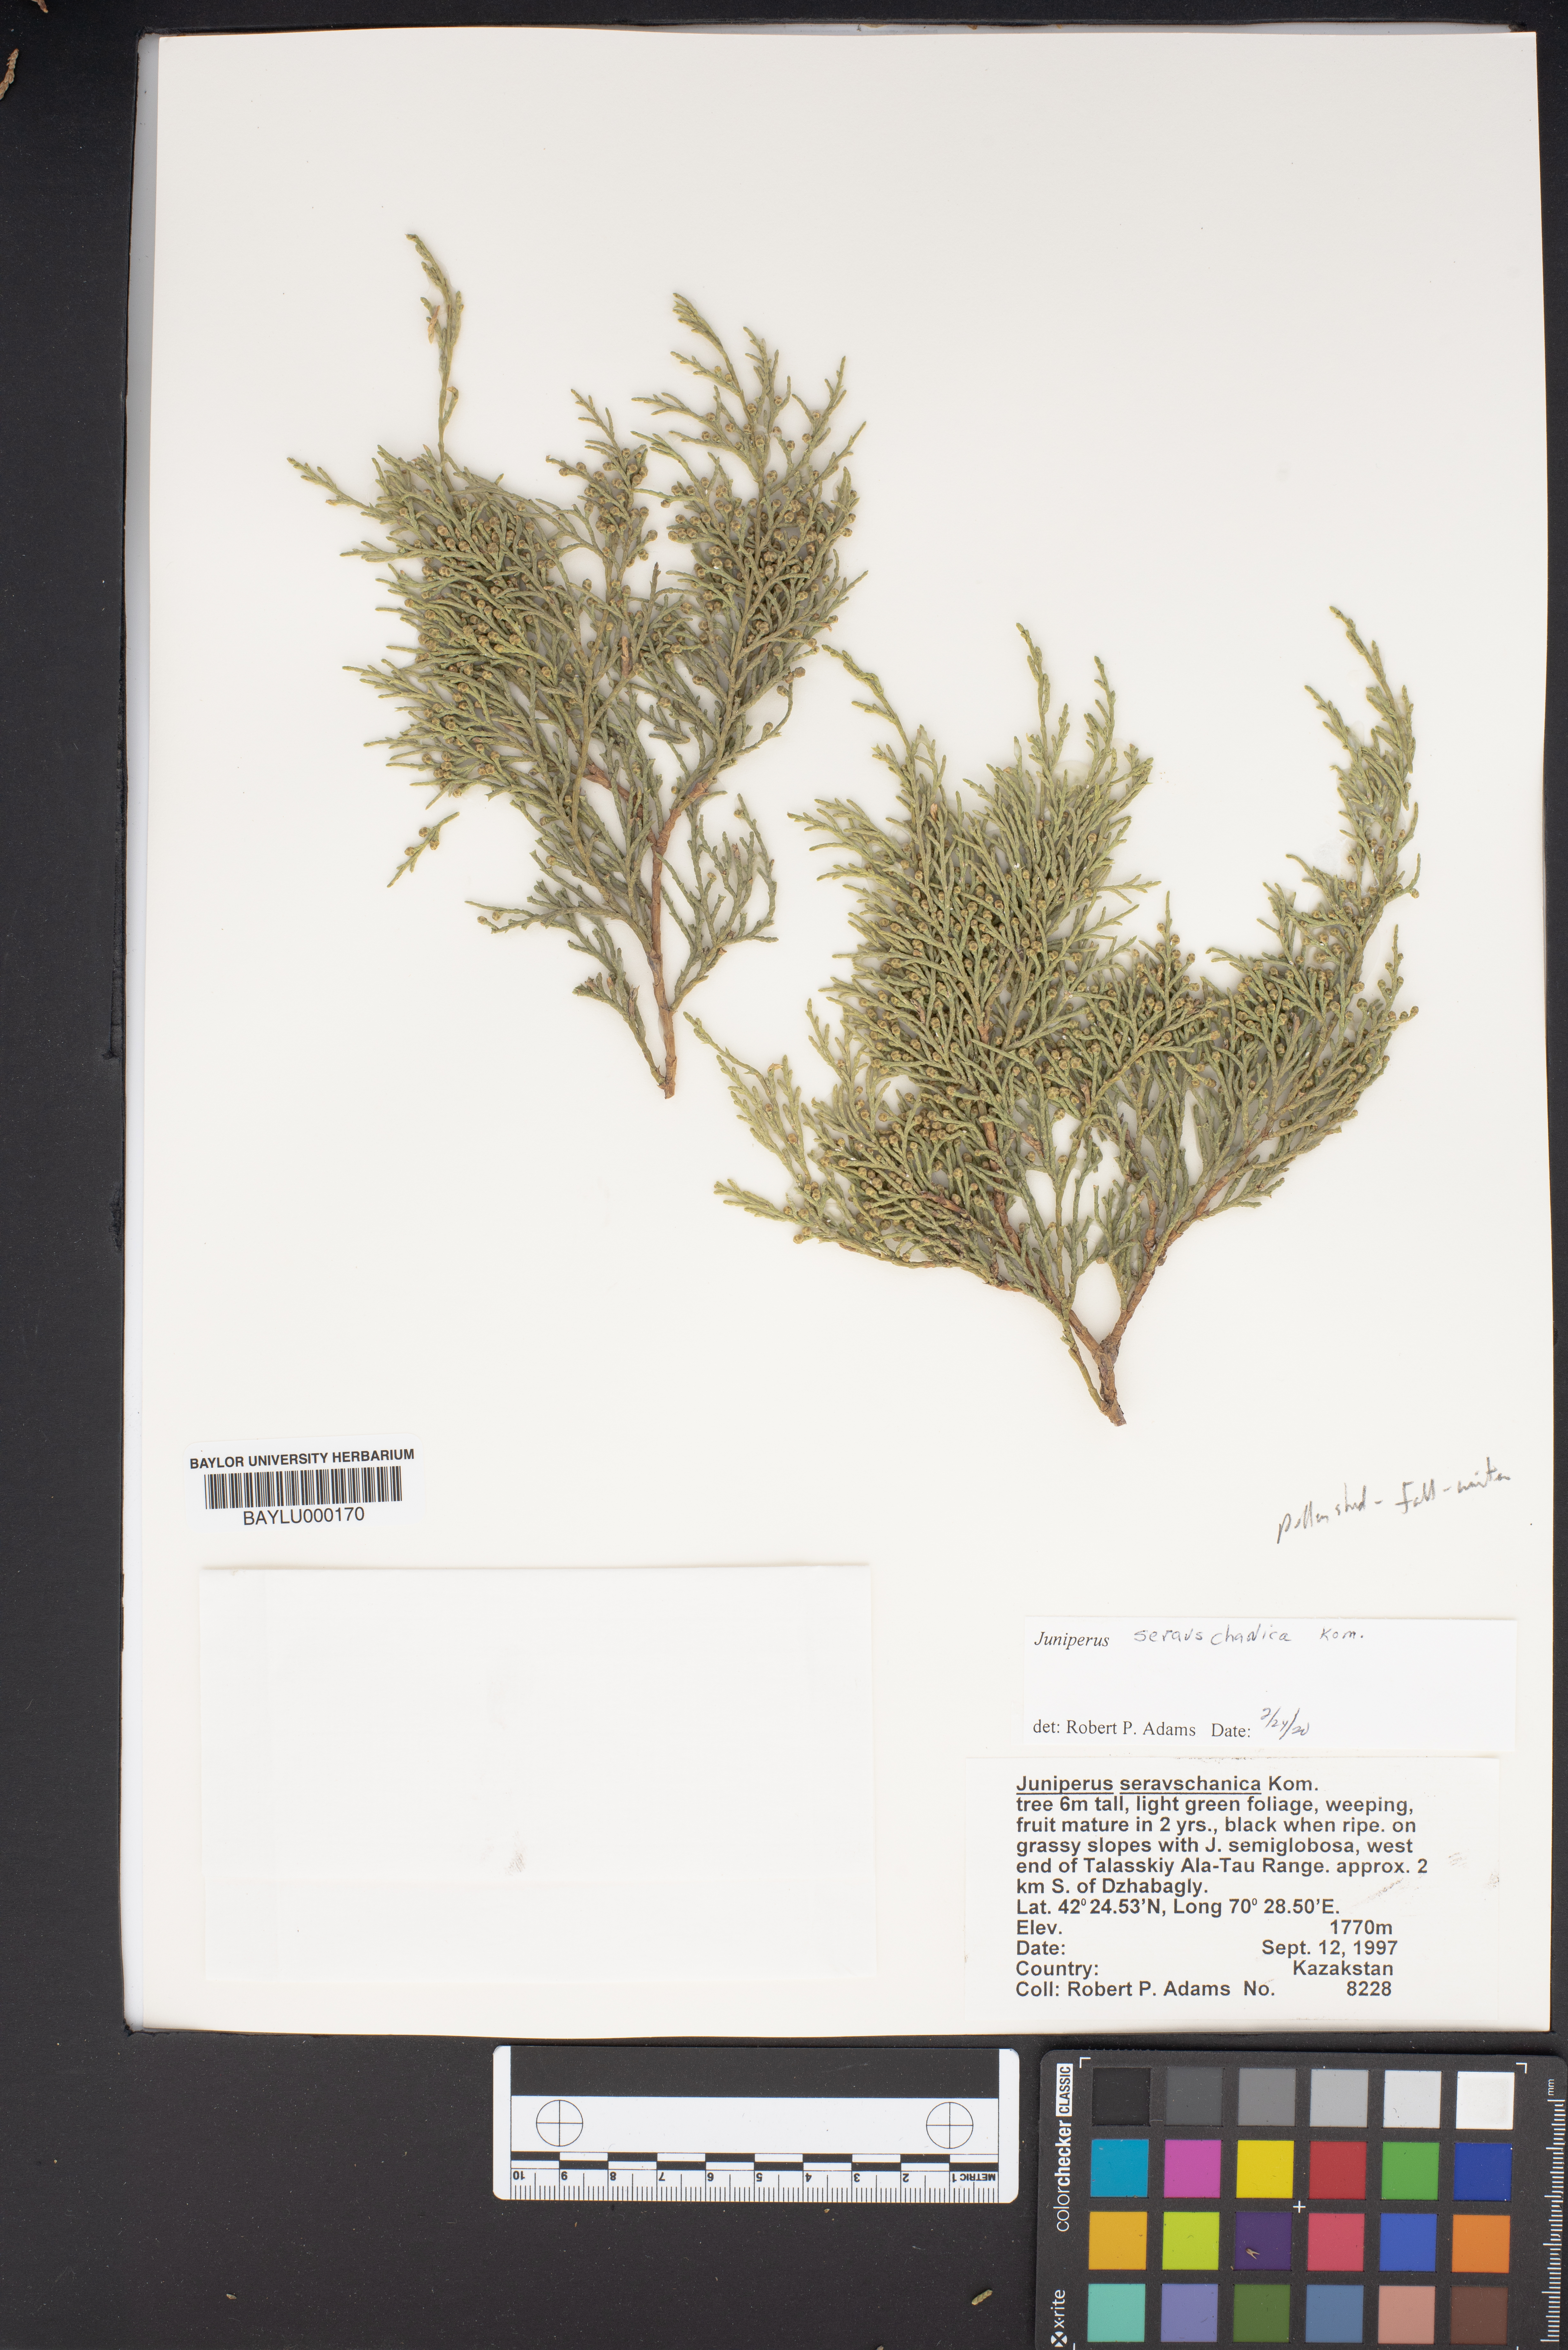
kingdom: Plantae
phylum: Tracheophyta
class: Pinopsida
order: Pinales
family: Cupressaceae
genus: Juniperus
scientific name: Juniperus excelsa
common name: Crimean juniper
